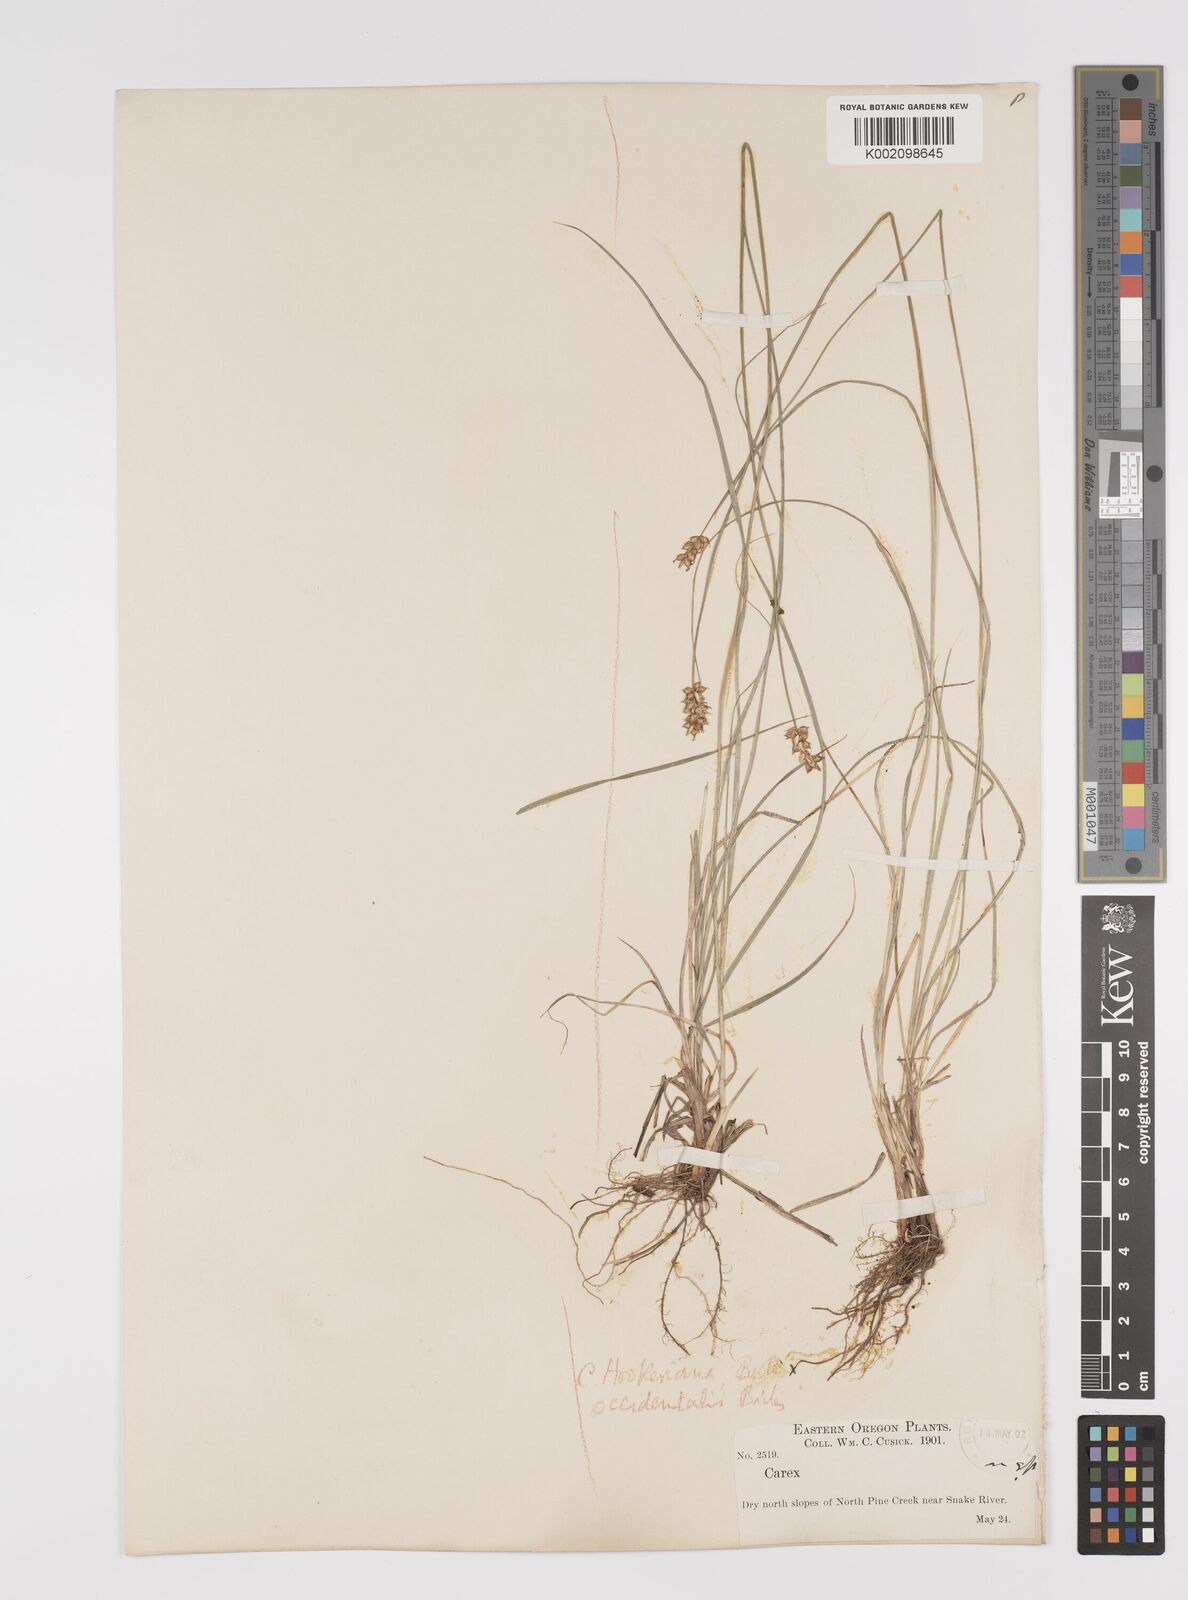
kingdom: Plantae
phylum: Tracheophyta
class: Liliopsida
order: Poales
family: Cyperaceae
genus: Carex
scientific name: Carex occidentalis
